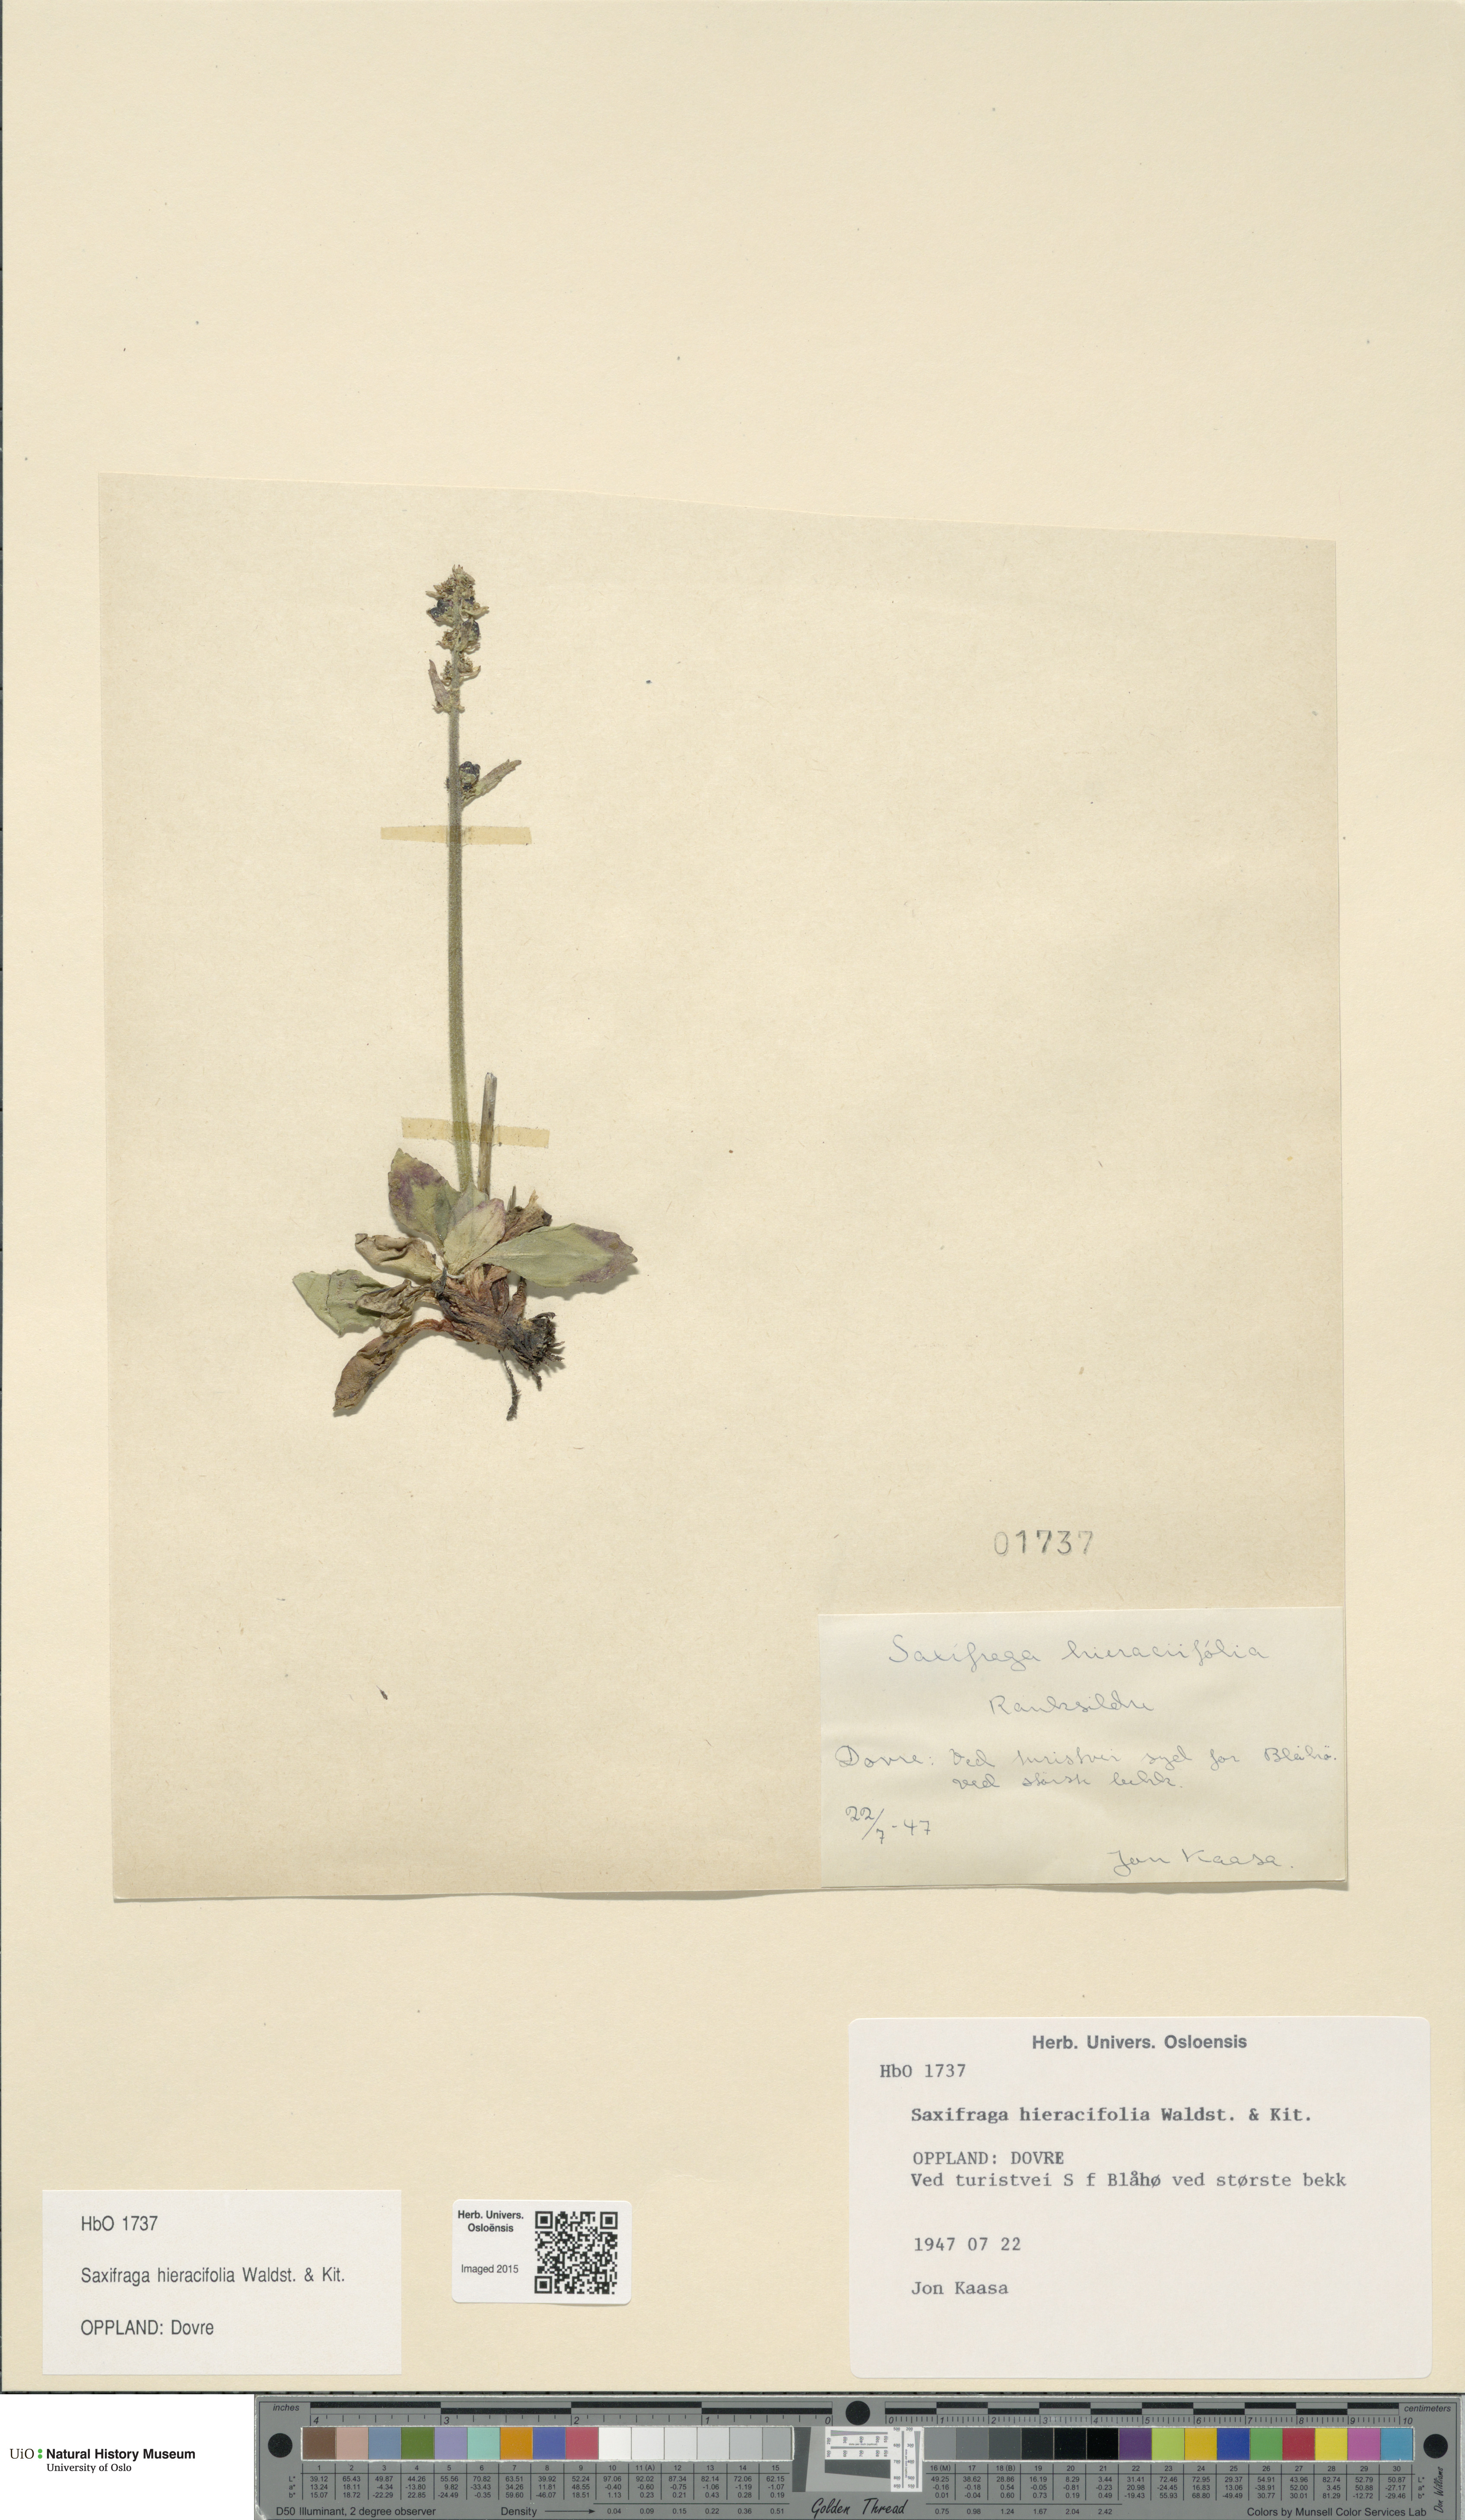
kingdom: Plantae
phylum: Tracheophyta
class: Magnoliopsida
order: Saxifragales
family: Saxifragaceae
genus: Micranthes
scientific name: Micranthes hieraciifolia
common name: Hawkweed-leaved saxifrage
